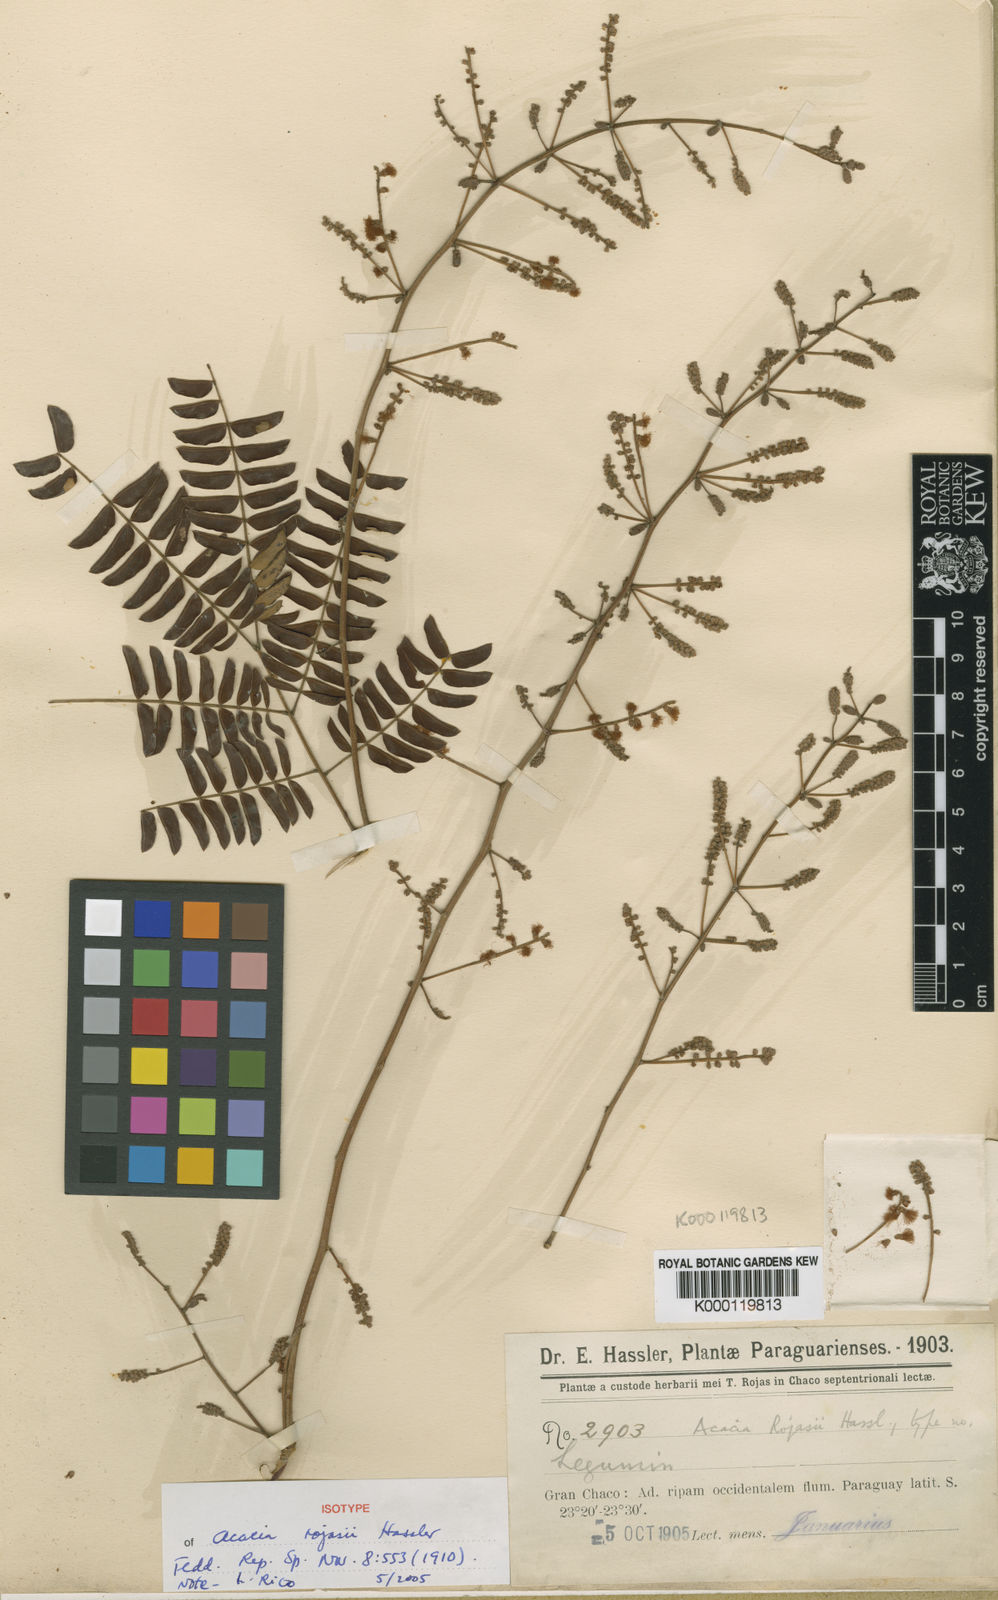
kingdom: Plantae
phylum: Tracheophyta
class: Magnoliopsida
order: Fabales
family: Fabaceae
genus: Senegalia
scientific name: Senegalia monacantha
